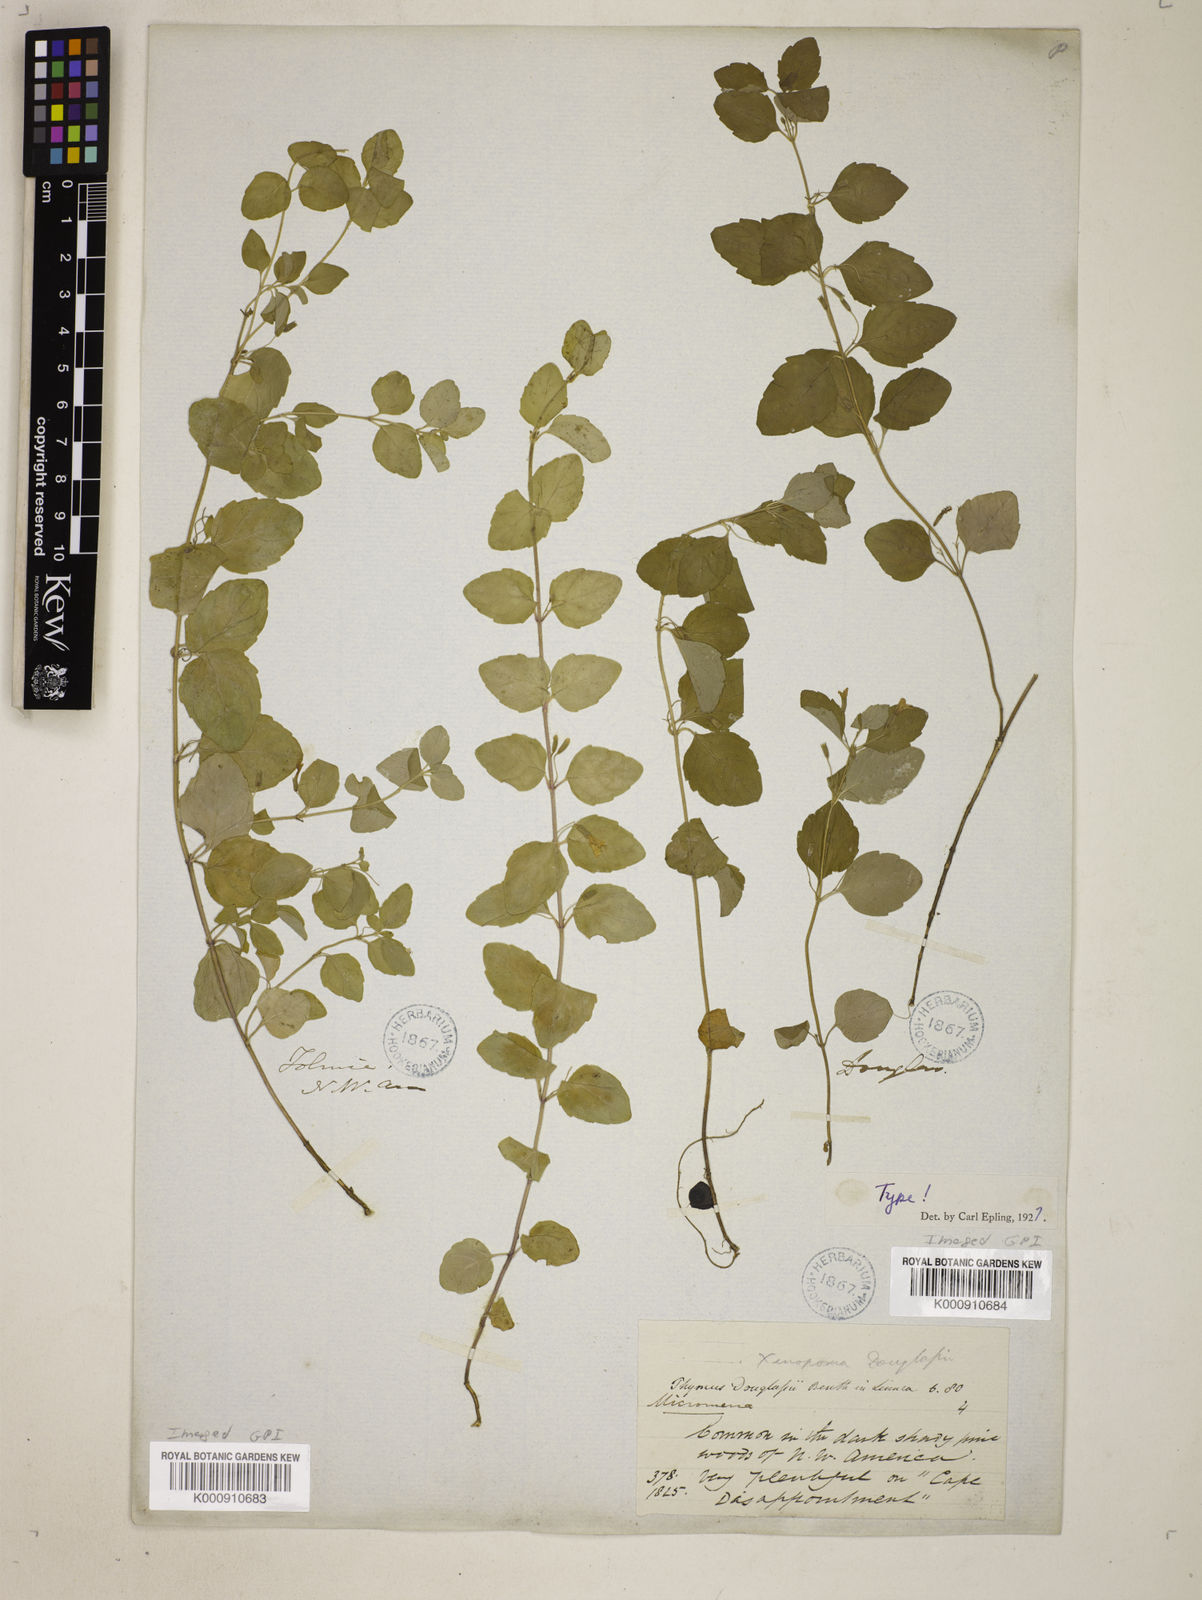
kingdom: Plantae
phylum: Tracheophyta
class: Magnoliopsida
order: Lamiales
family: Lamiaceae
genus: Micromeria
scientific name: Micromeria douglasii
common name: Yerba buena
